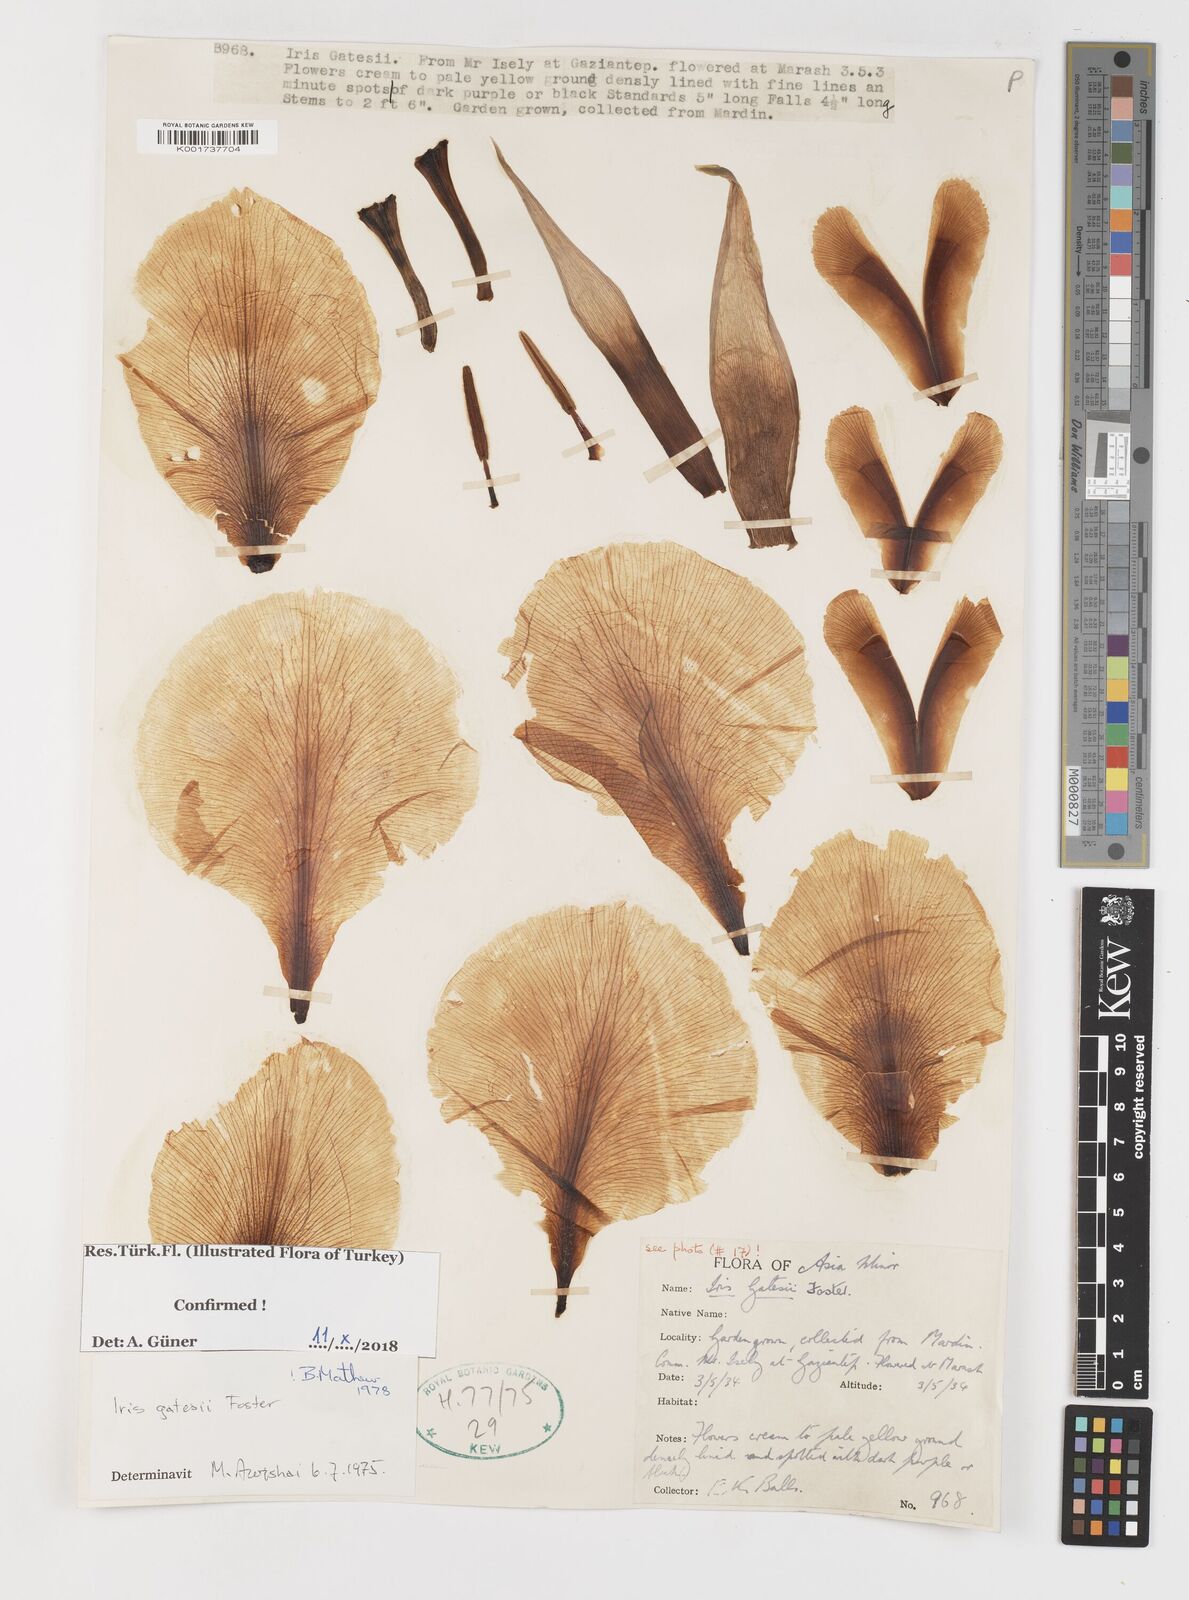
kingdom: Plantae
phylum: Tracheophyta
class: Liliopsida
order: Asparagales
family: Iridaceae
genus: Iris
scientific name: Iris gatesii
